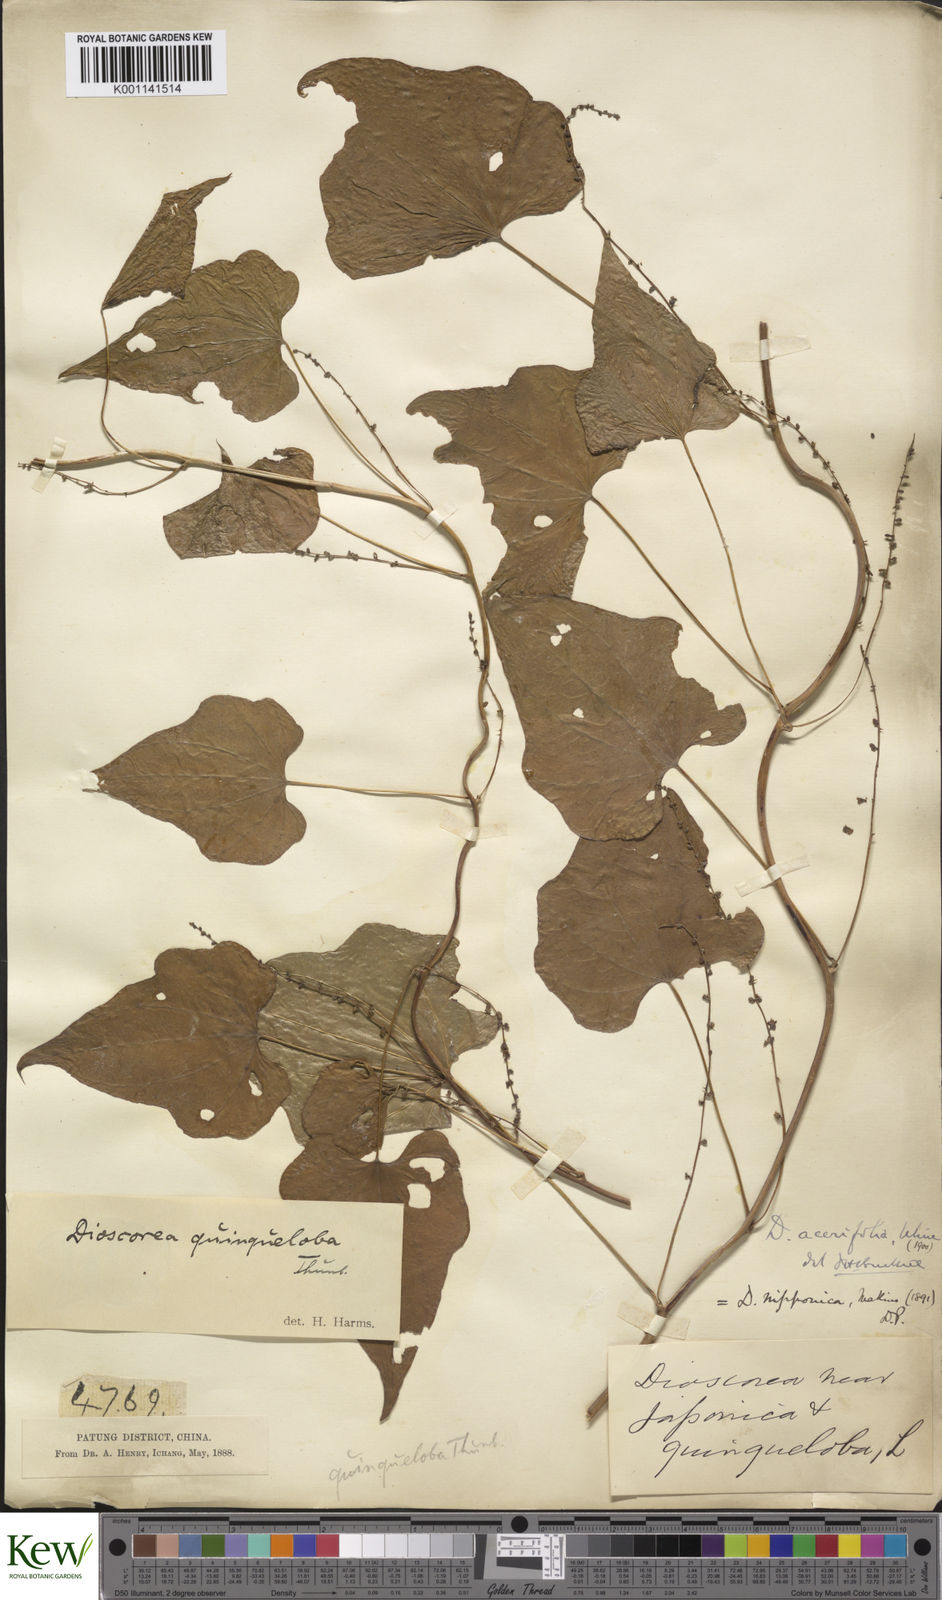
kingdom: Plantae
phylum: Tracheophyta
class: Liliopsida
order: Dioscoreales
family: Dioscoreaceae
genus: Dioscorea
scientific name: Dioscorea nipponica
